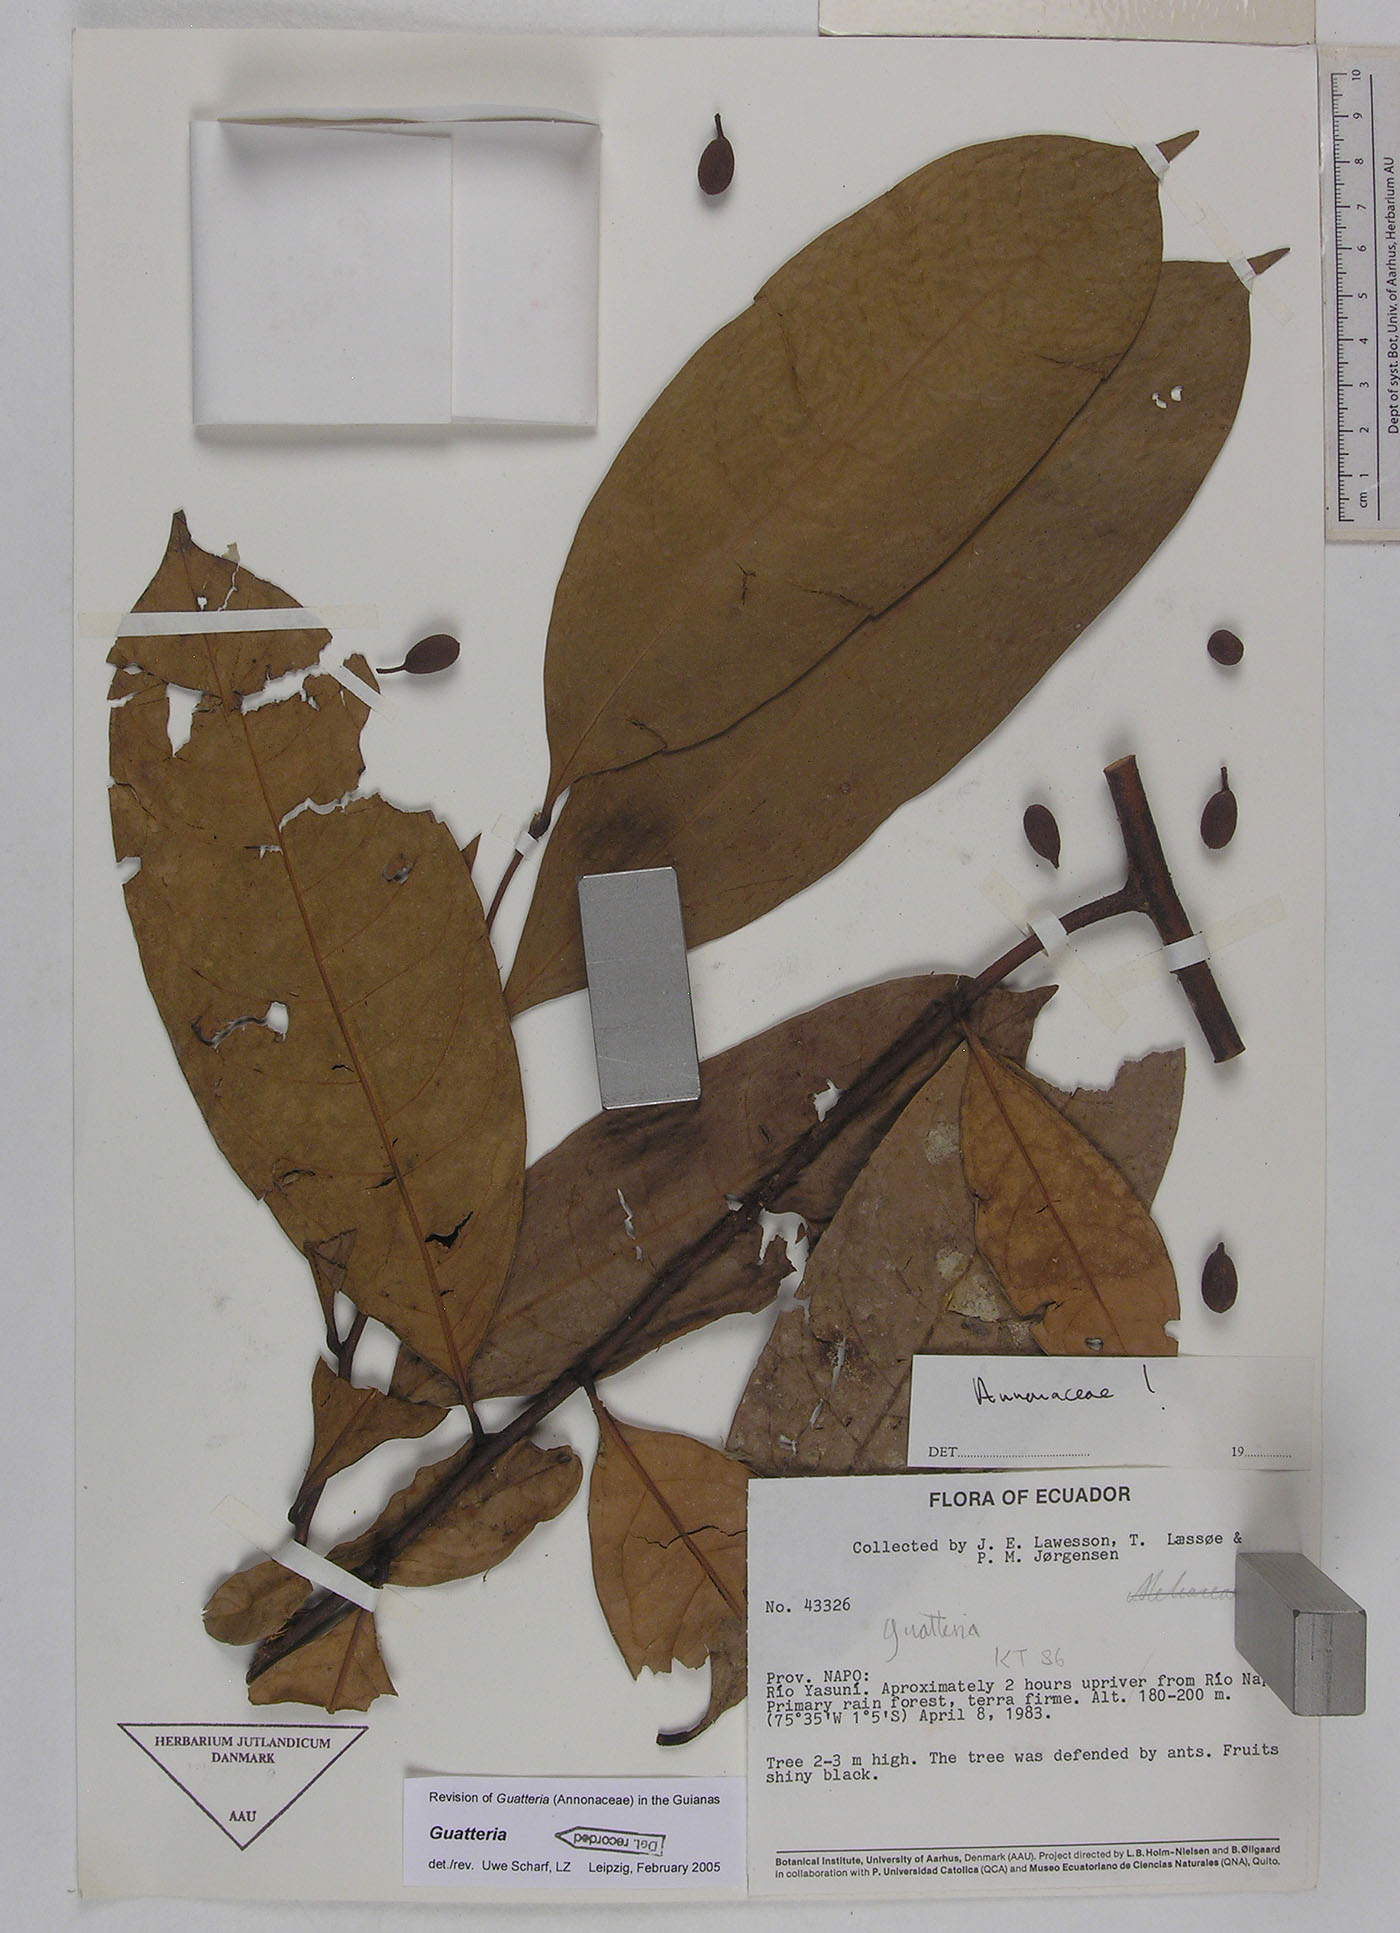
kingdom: Plantae
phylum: Tracheophyta
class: Magnoliopsida
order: Magnoliales
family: Annonaceae
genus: Guatteria
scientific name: Guatteria blepharophylla
